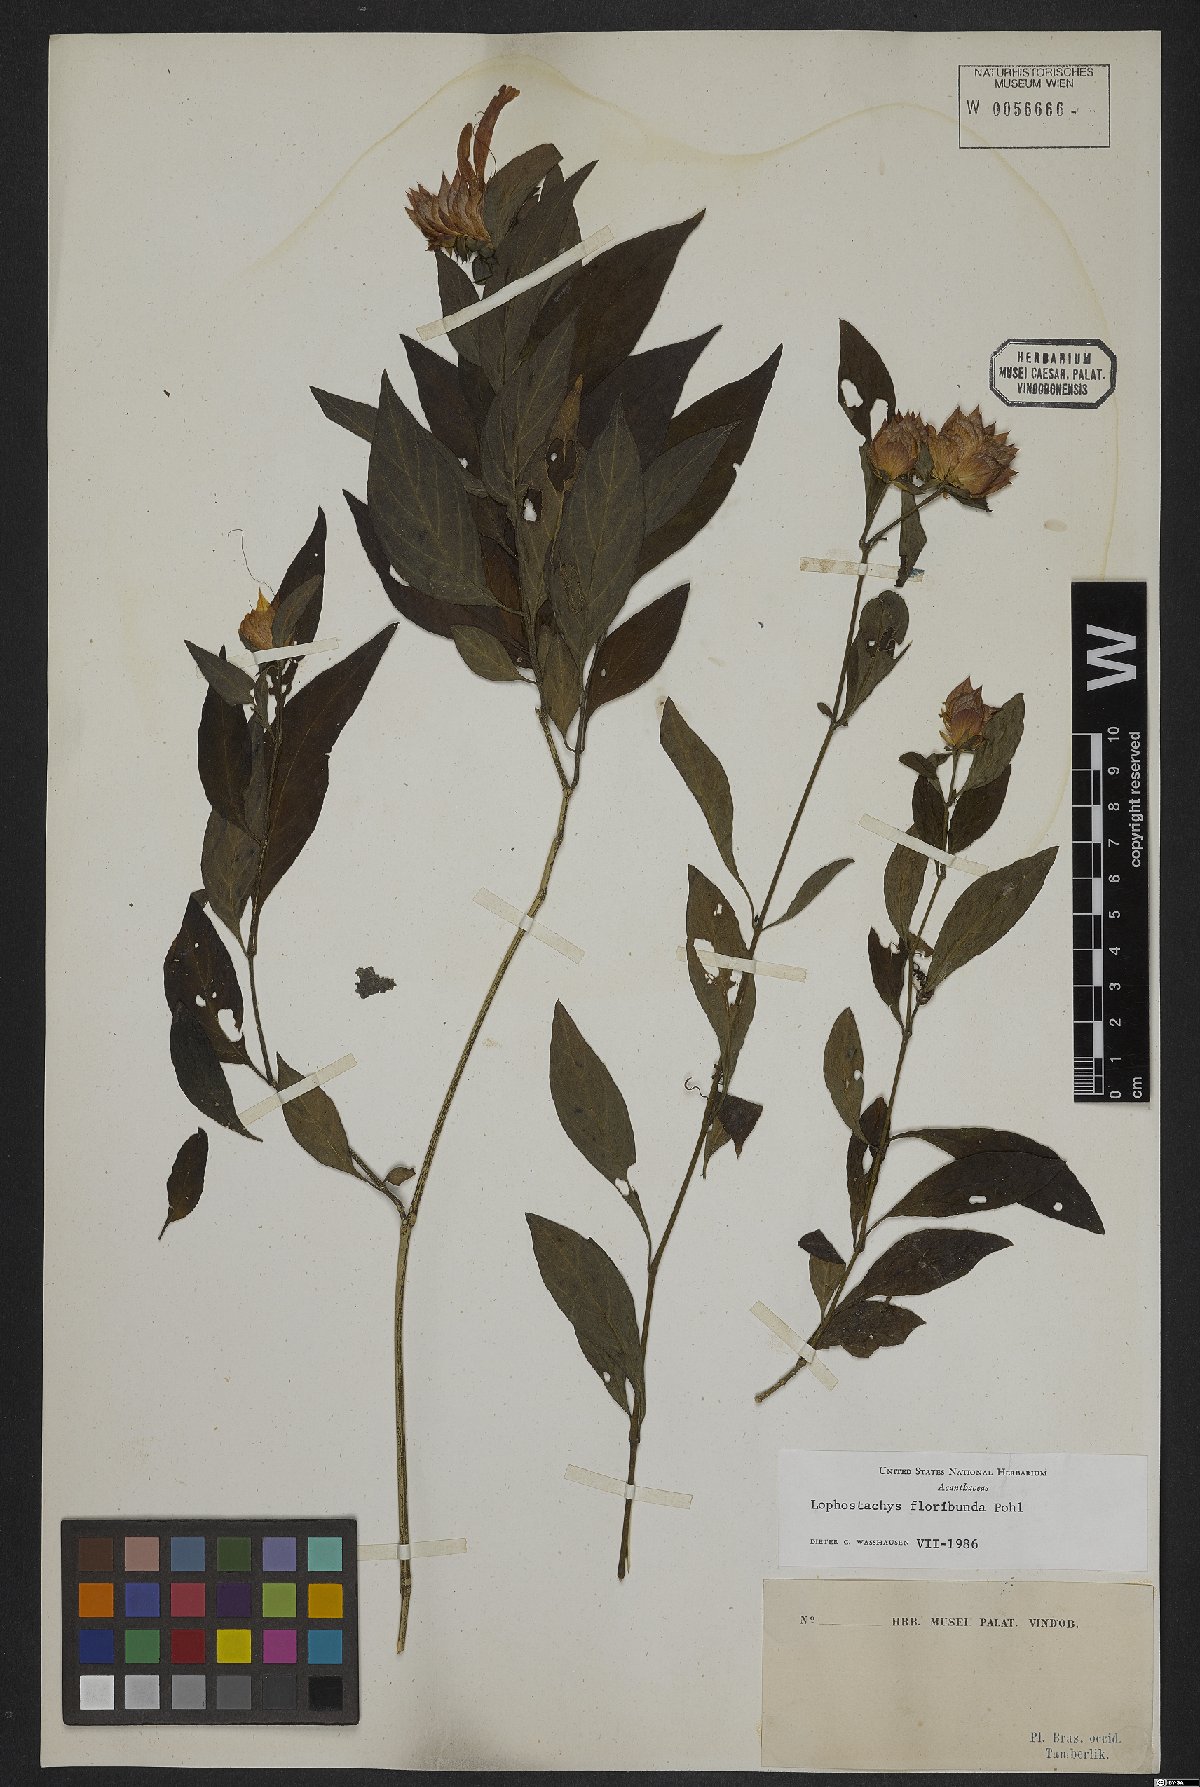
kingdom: Plantae
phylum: Tracheophyta
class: Magnoliopsida
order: Lamiales
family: Acanthaceae
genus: Lepidagathis
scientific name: Lepidagathis floribunda
